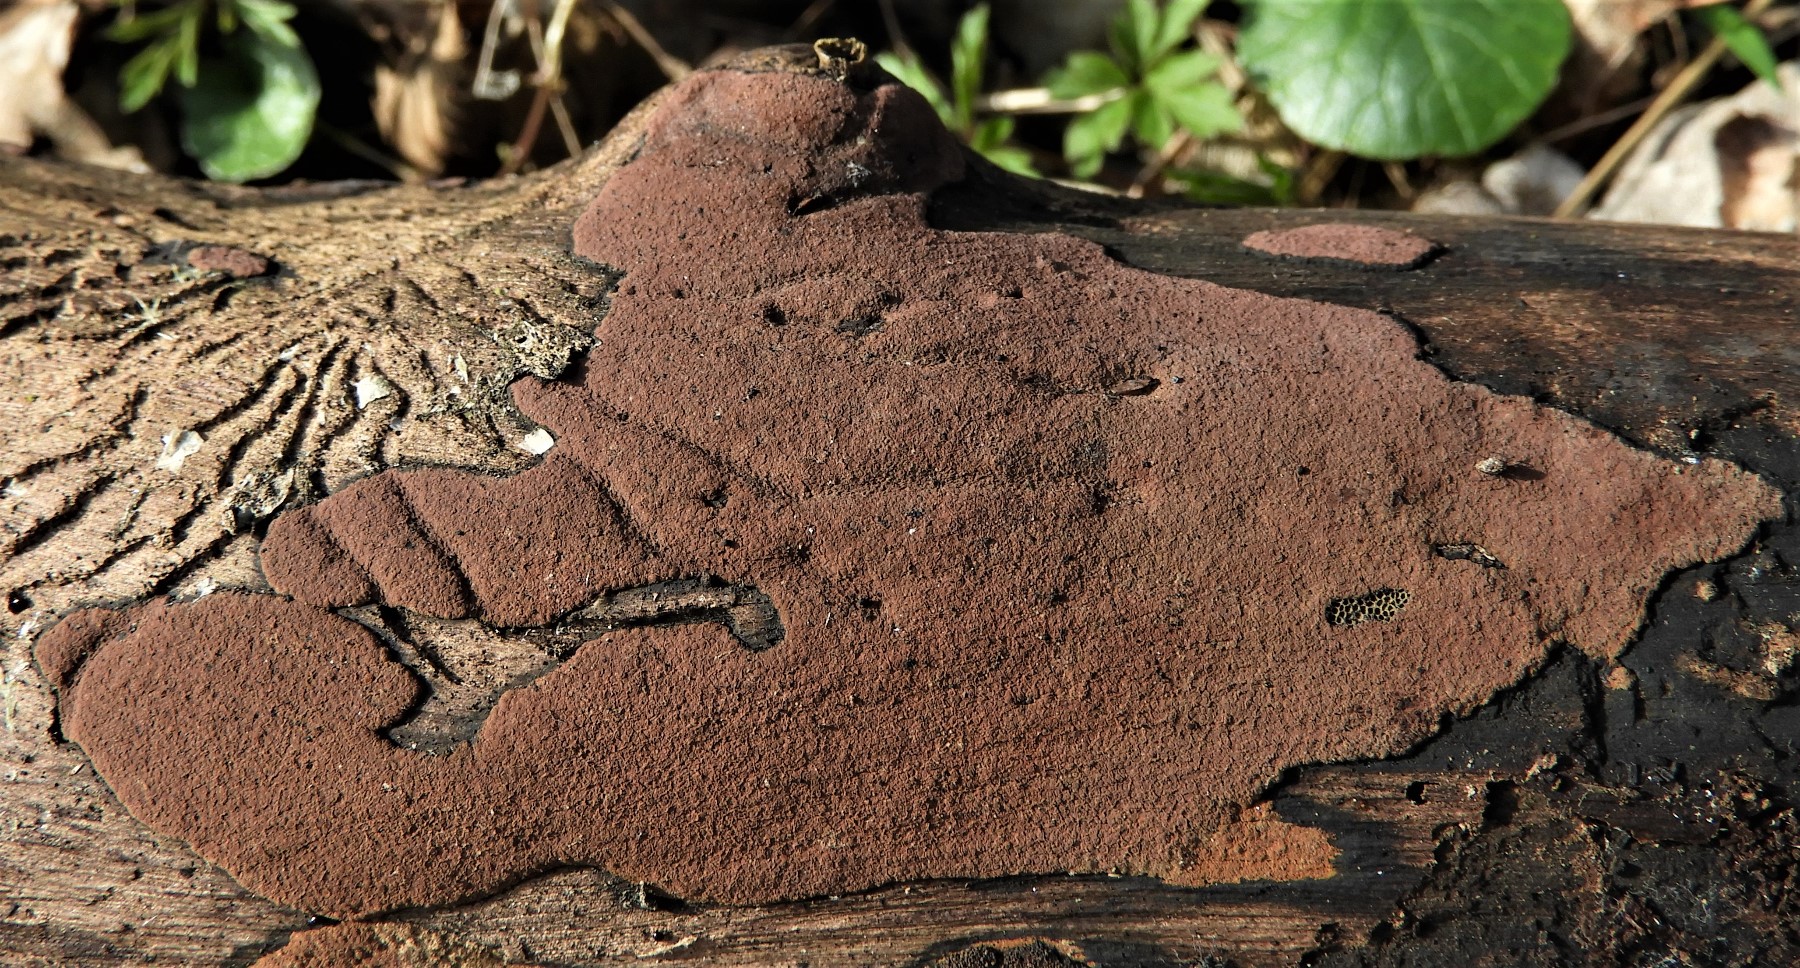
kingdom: Fungi
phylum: Ascomycota
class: Sordariomycetes
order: Xylariales
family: Hypoxylaceae
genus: Hypoxylon
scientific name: Hypoxylon petriniae
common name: nedsænket kulbær
